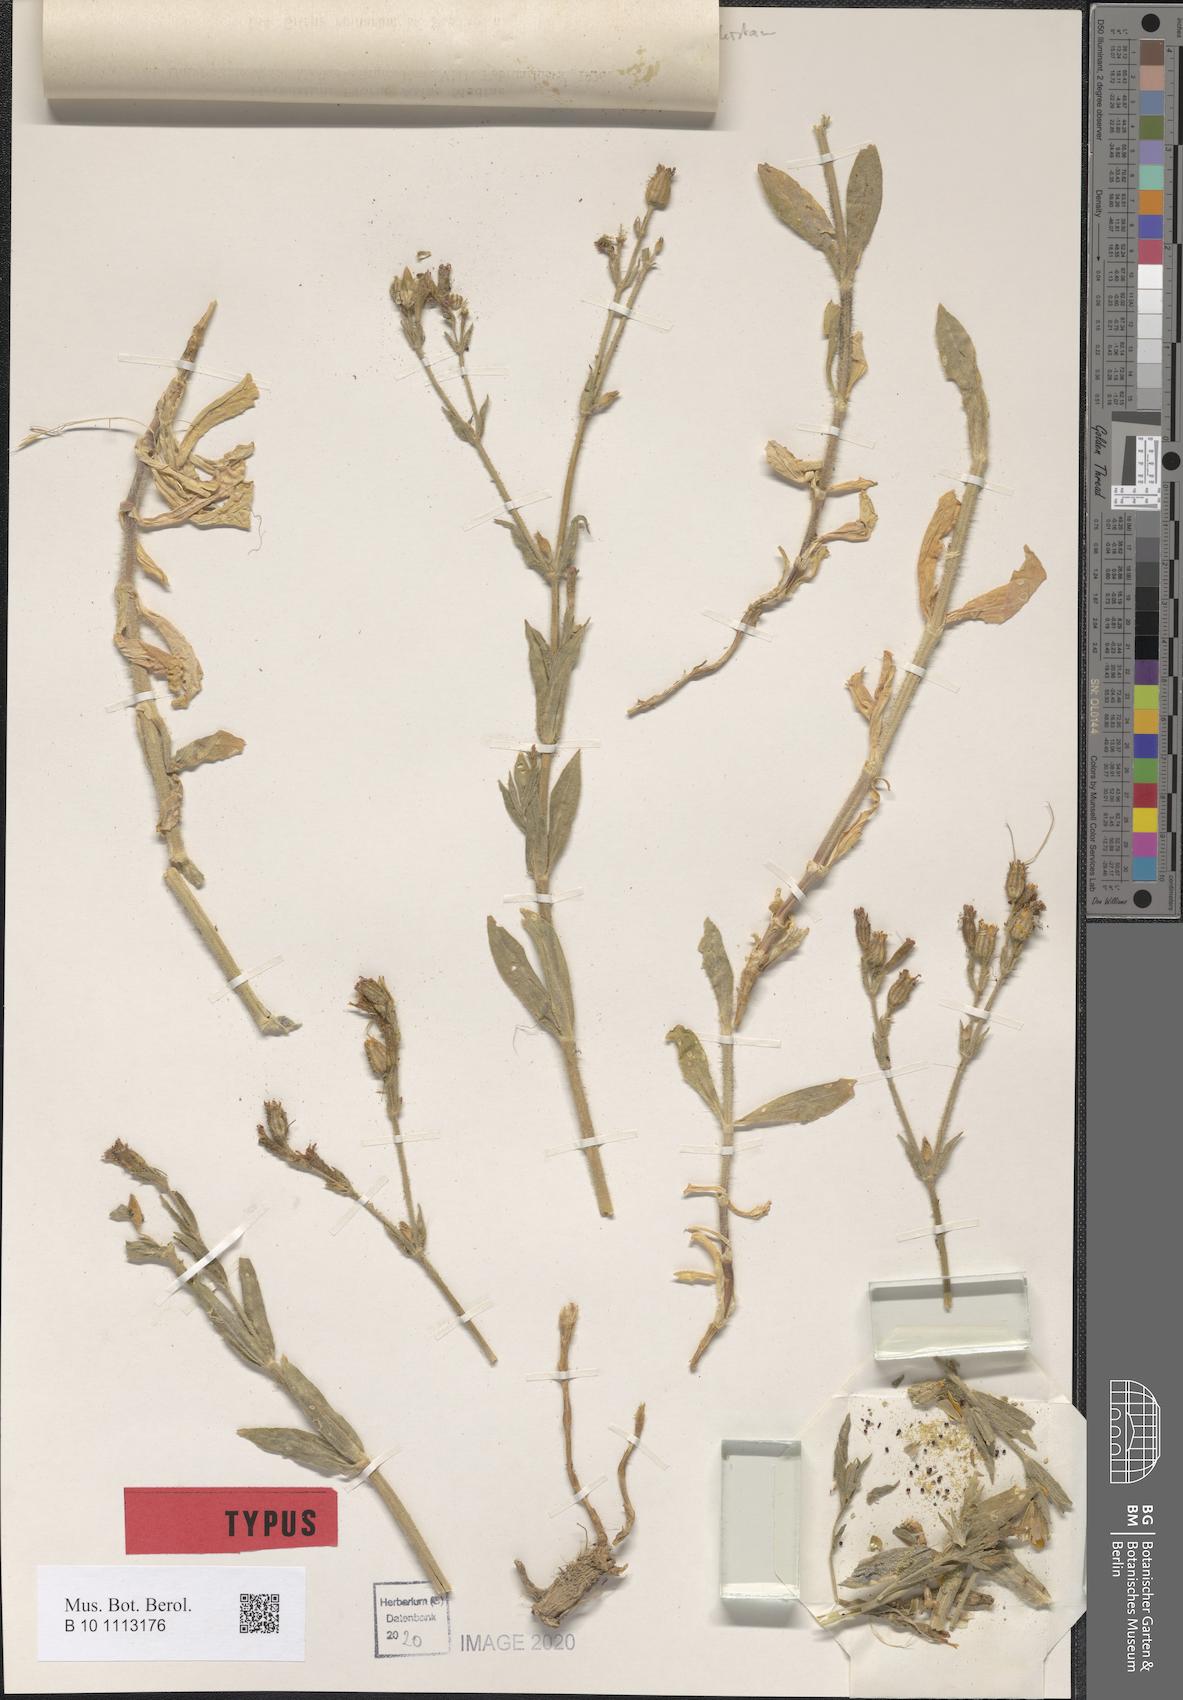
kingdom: Plantae
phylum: Tracheophyta
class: Magnoliopsida
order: Caryophyllales
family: Caryophyllaceae
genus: Silene
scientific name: Silene ruinarum
